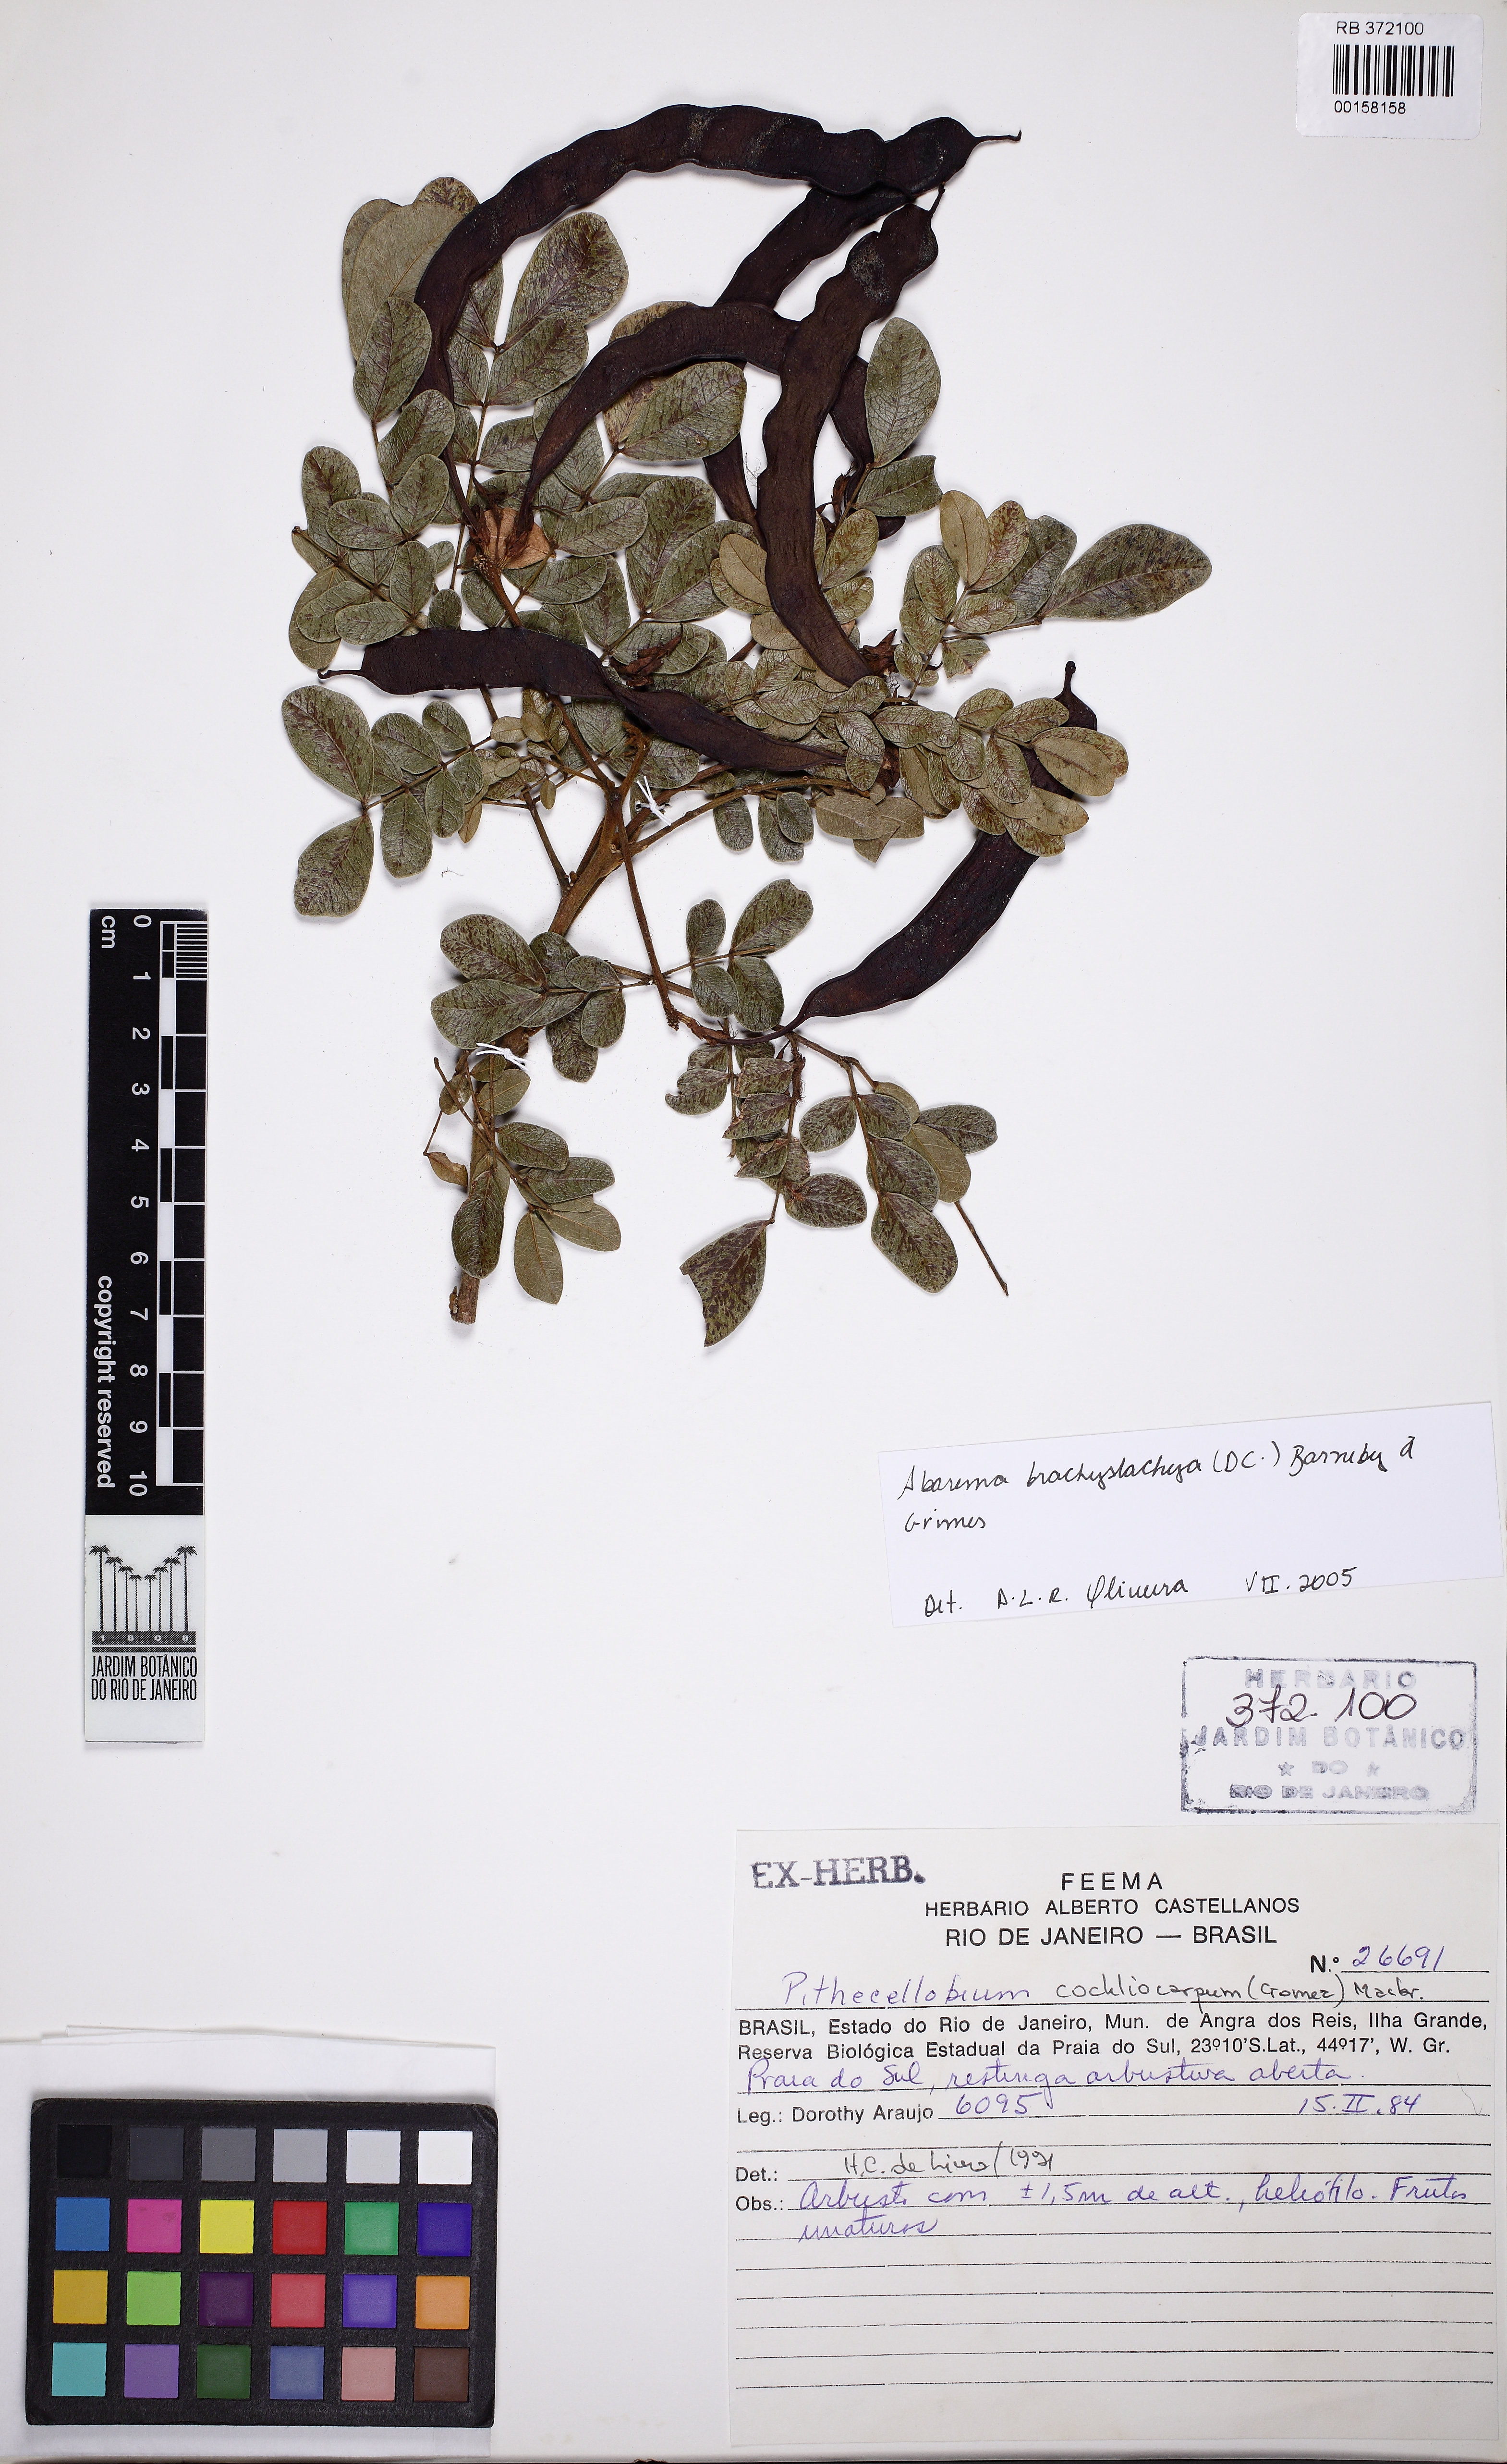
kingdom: Plantae
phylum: Tracheophyta
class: Magnoliopsida
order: Fabales
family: Fabaceae
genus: Jupunba
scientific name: Jupunba brachystachya
